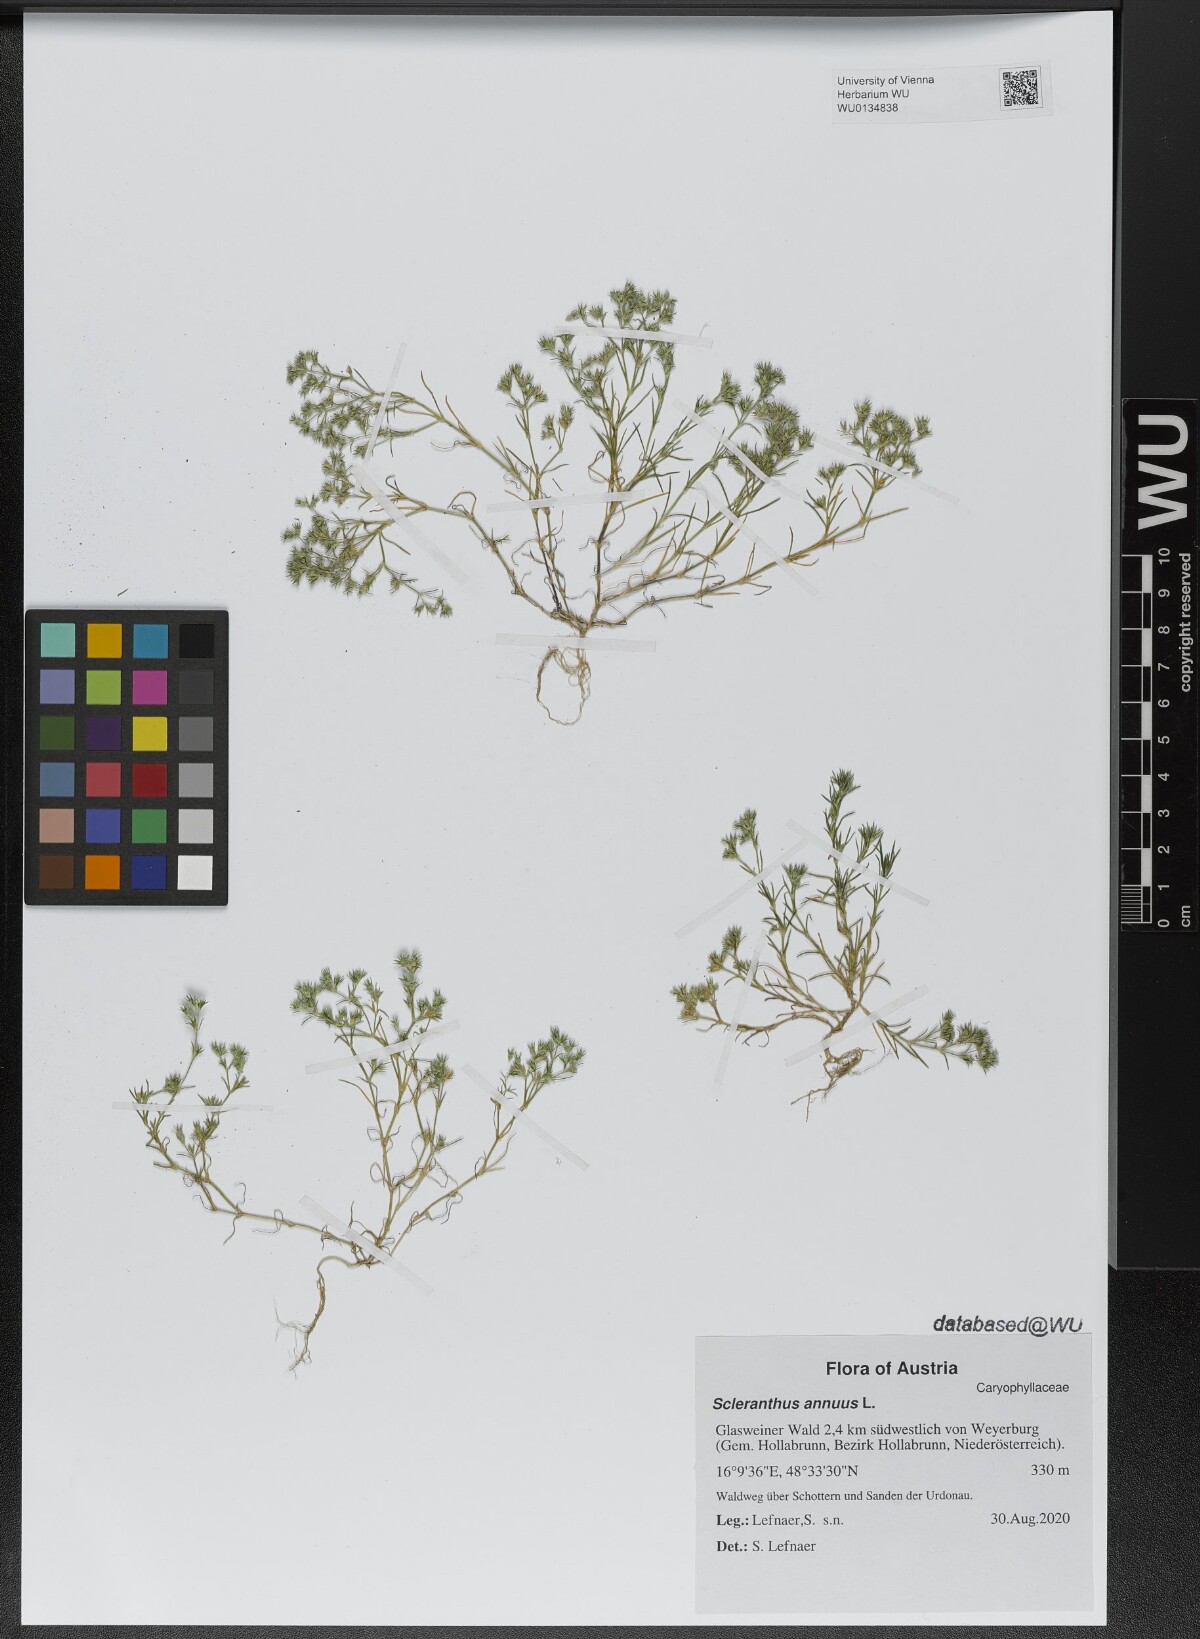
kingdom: Plantae
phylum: Tracheophyta
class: Magnoliopsida
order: Caryophyllales
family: Caryophyllaceae
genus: Scleranthus
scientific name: Scleranthus annuus
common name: Annual knawel
